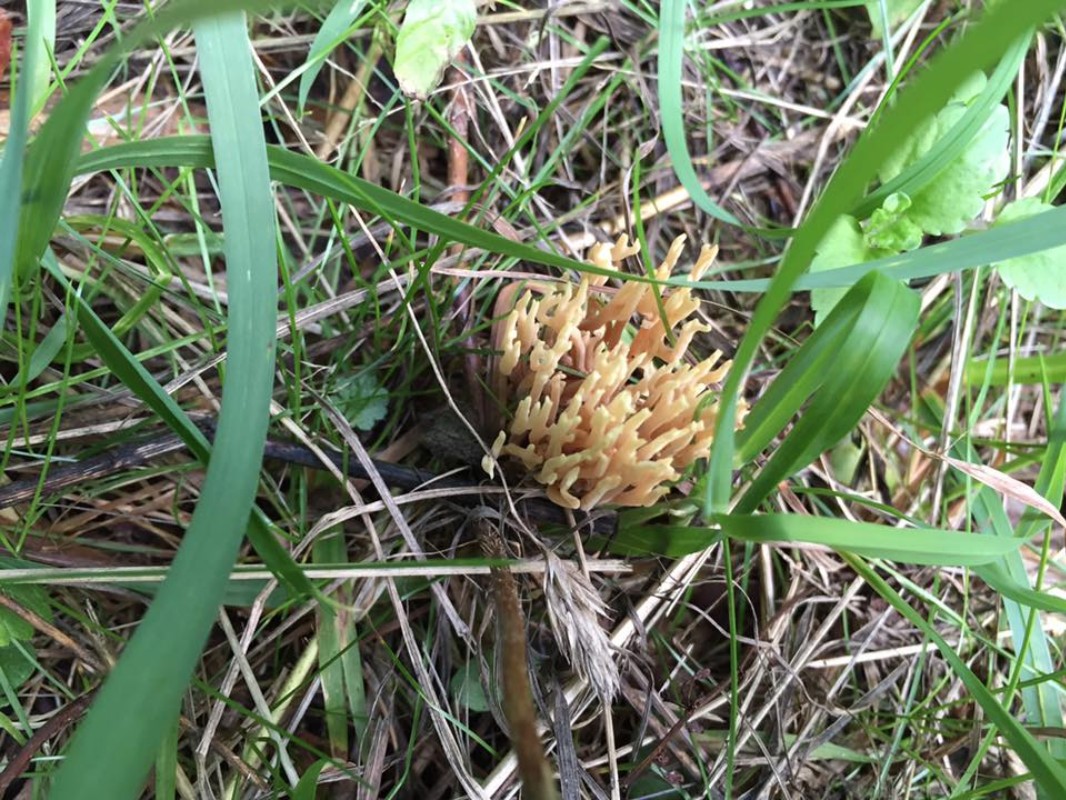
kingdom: Fungi
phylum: Basidiomycota
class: Agaricomycetes
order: Gomphales
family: Gomphaceae
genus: Ramaria
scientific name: Ramaria stricta
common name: rank koralsvamp
